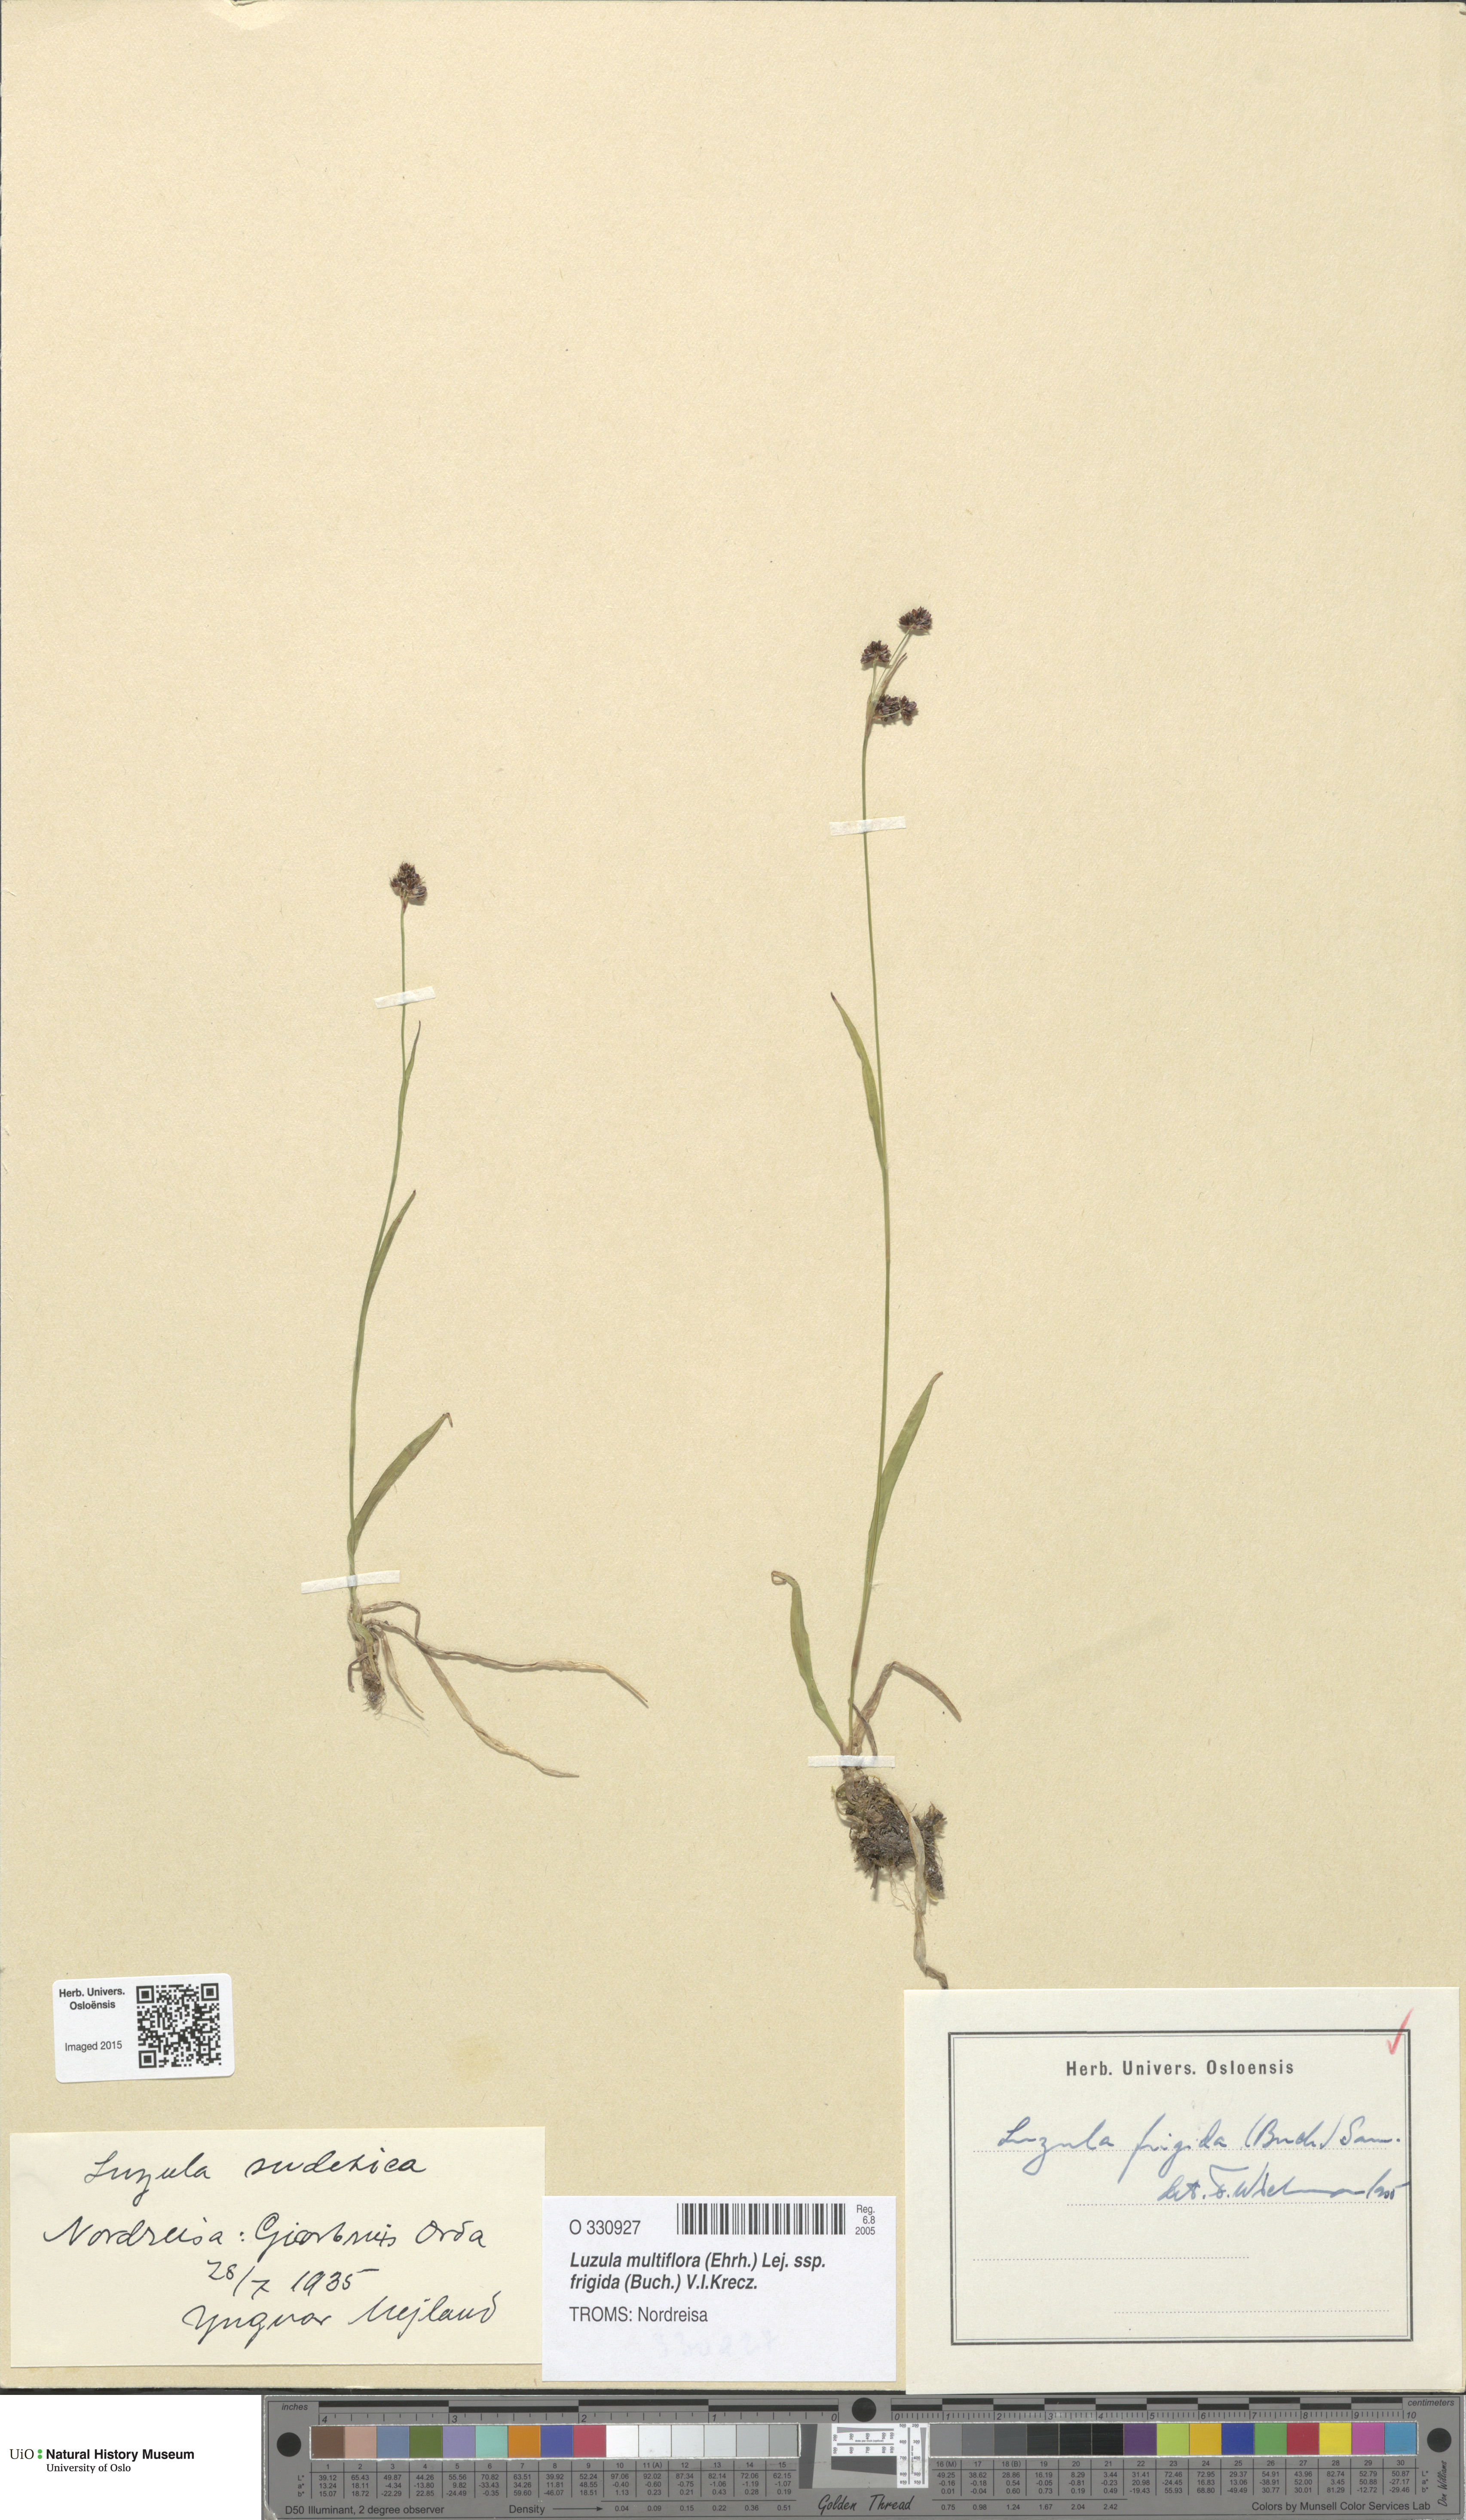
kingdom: Plantae
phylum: Tracheophyta
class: Liliopsida
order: Poales
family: Juncaceae
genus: Luzula
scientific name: Luzula multiflora
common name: Heath wood-rush
